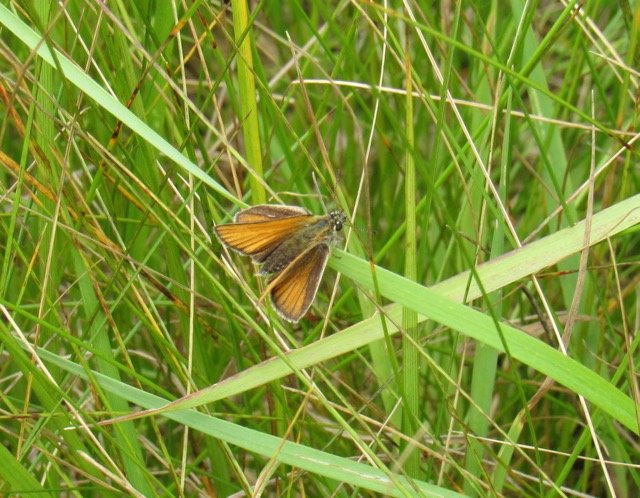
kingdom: Animalia
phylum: Arthropoda
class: Insecta
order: Lepidoptera
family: Hesperiidae
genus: Thymelicus
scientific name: Thymelicus lineola
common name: European Skipper
